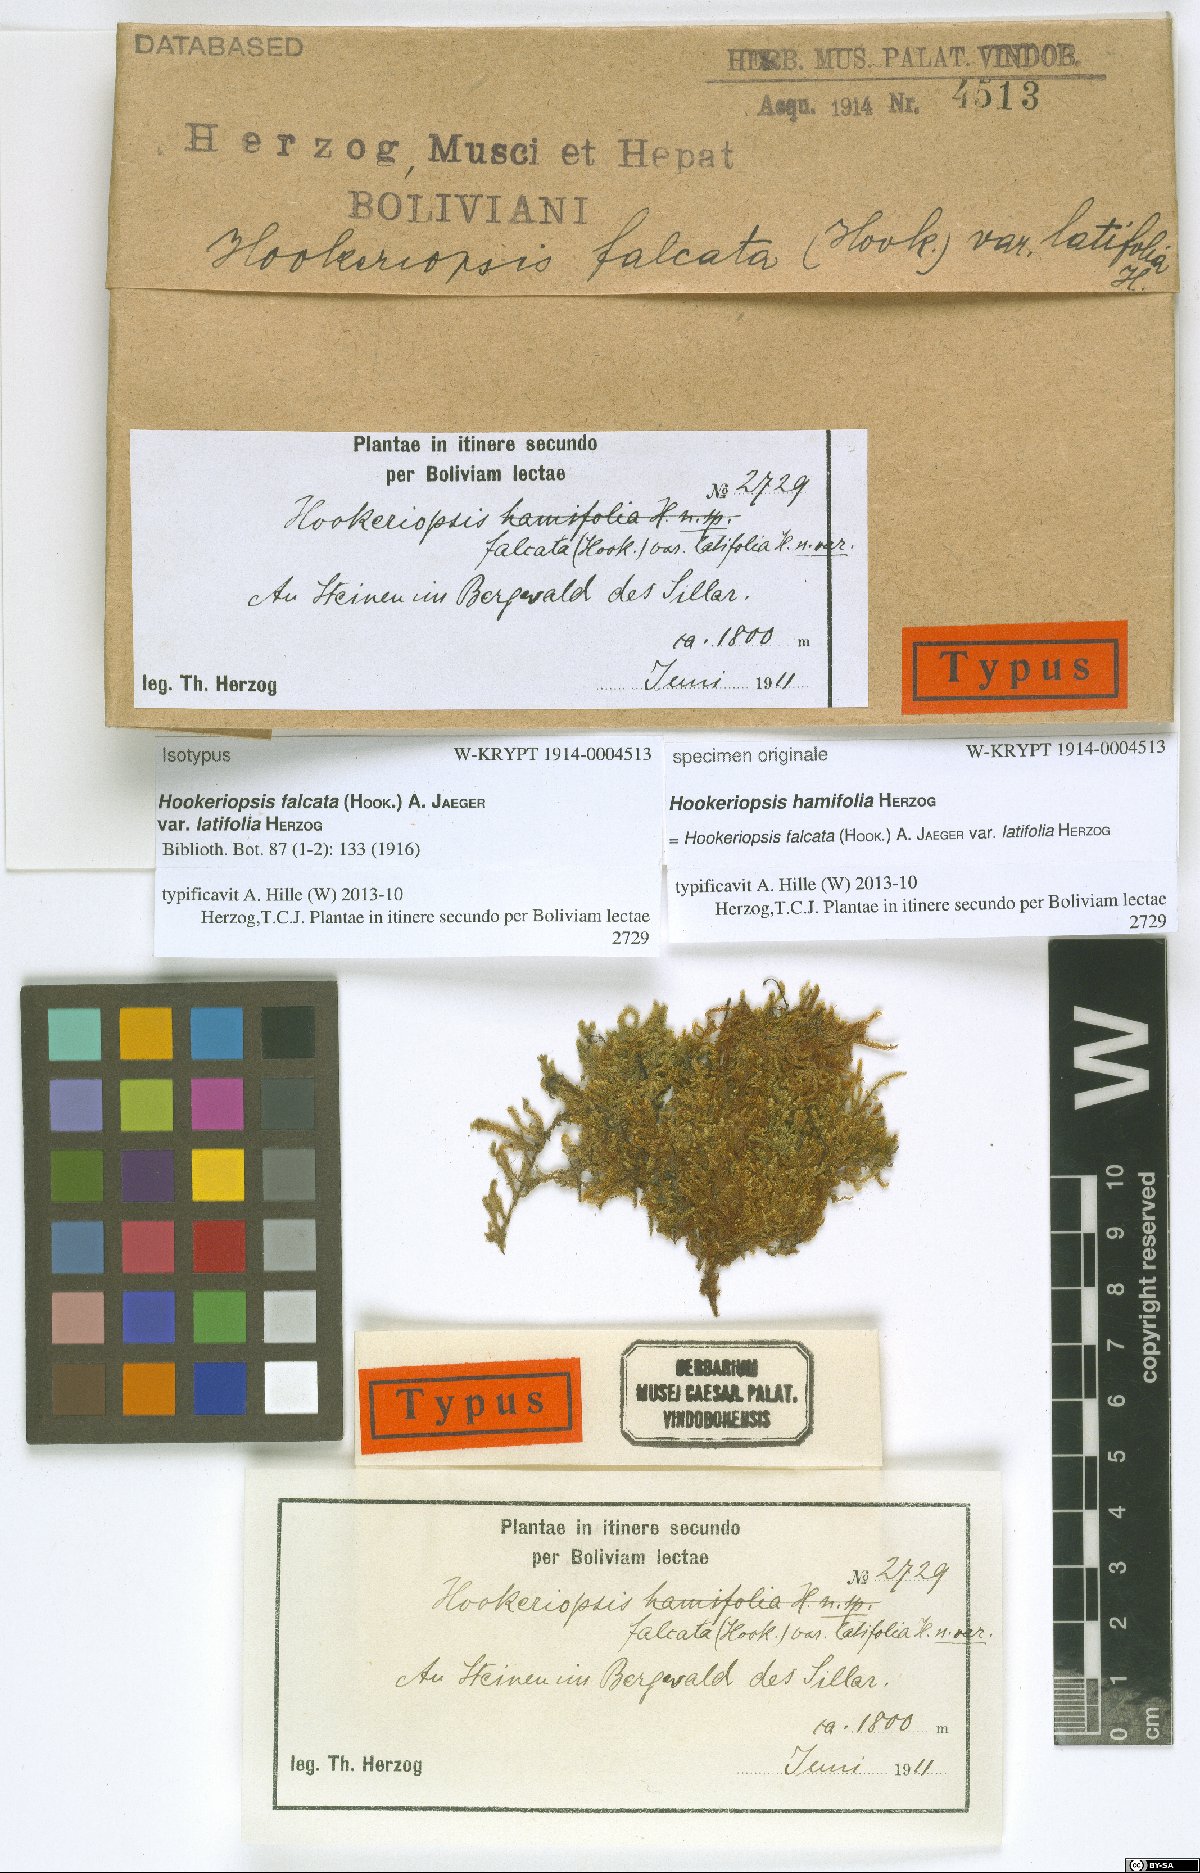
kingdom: Plantae
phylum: Bryophyta
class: Bryopsida
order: Hookeriales
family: Pilotrichaceae
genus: Trachyxiphium
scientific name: Trachyxiphium guadalupense
